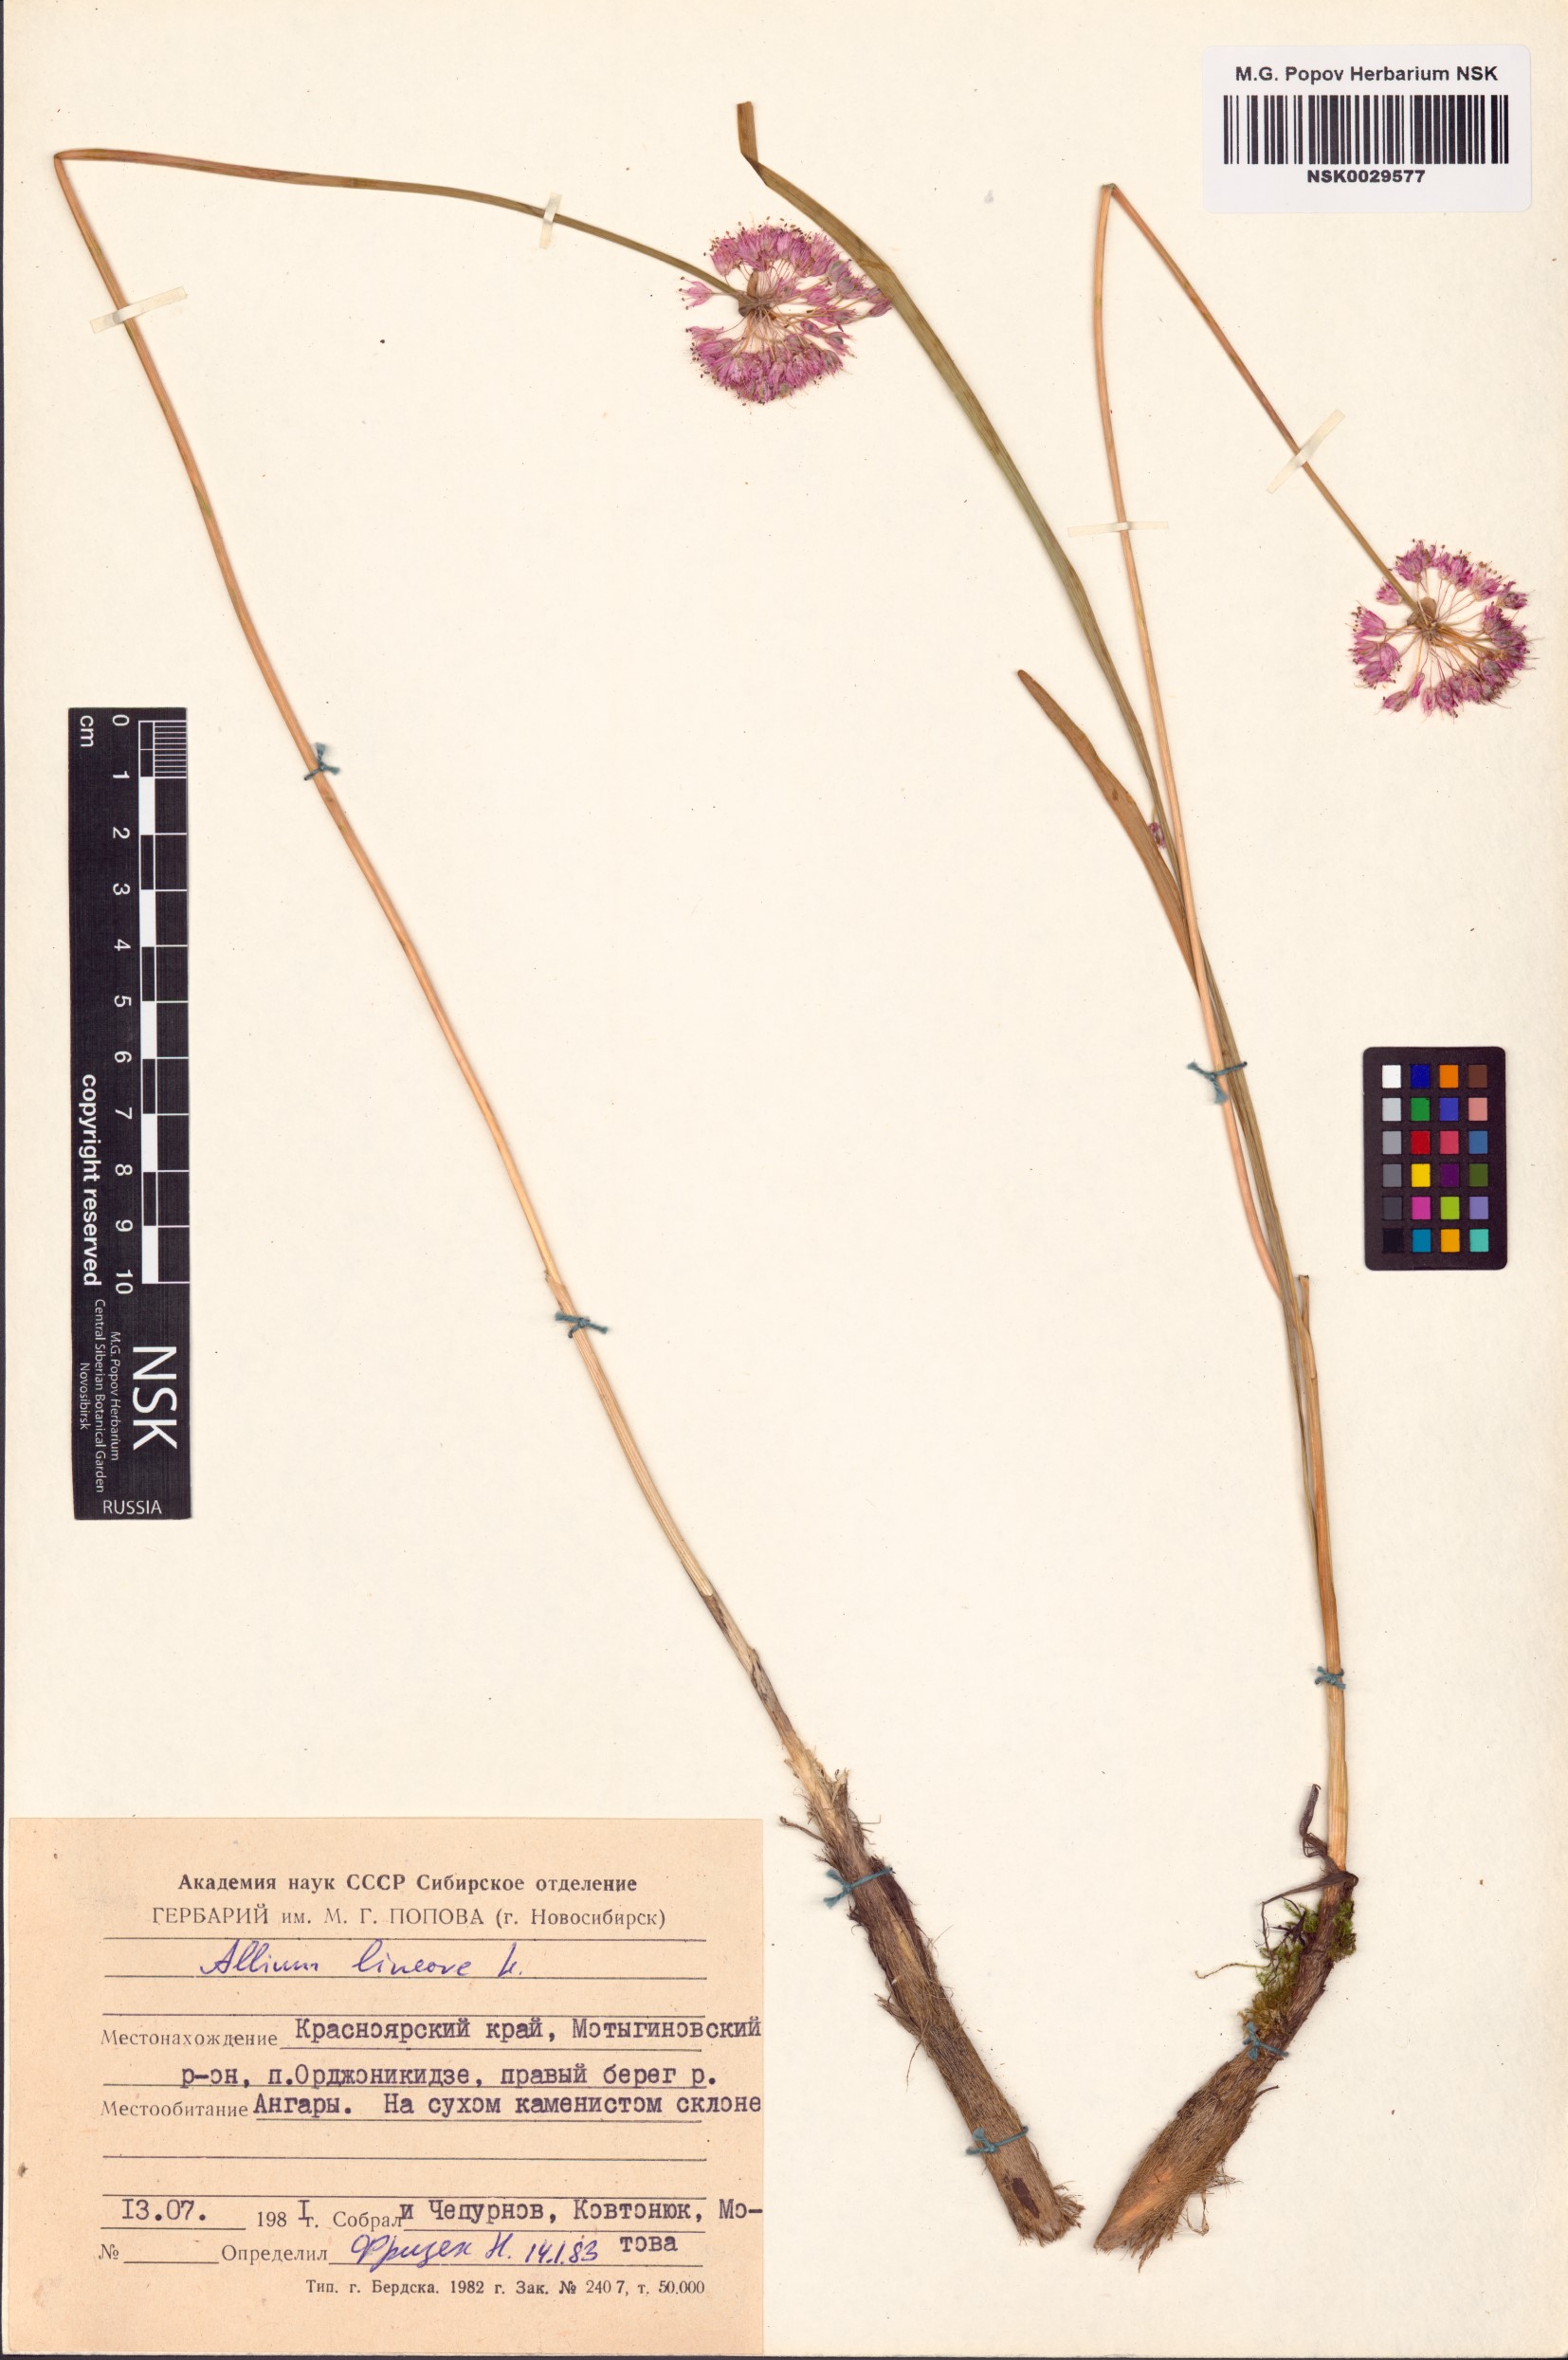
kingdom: Plantae
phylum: Tracheophyta
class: Liliopsida
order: Asparagales
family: Amaryllidaceae
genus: Allium
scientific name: Allium lineare
